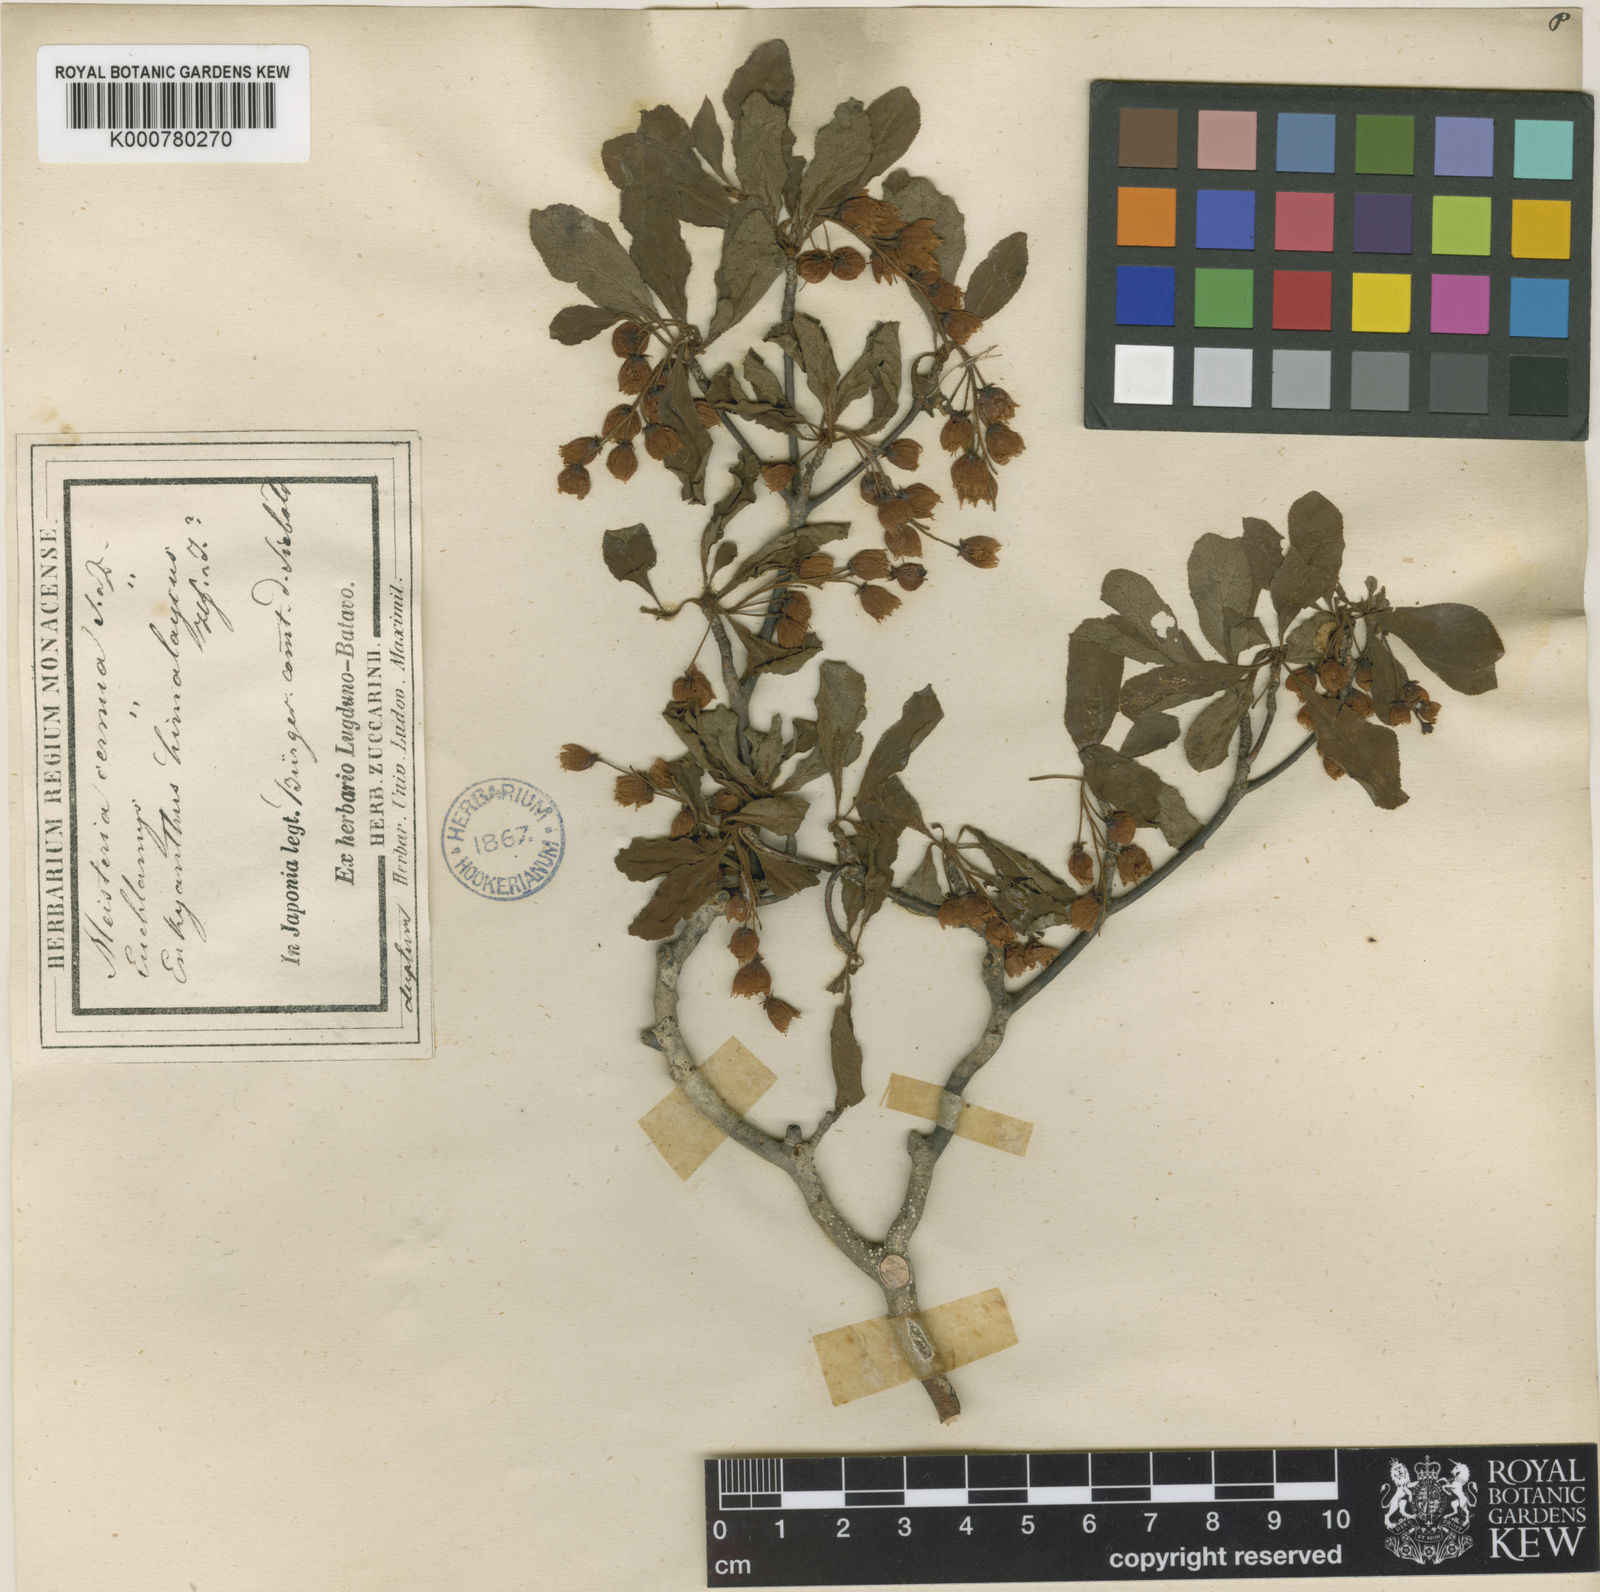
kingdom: Plantae
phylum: Tracheophyta
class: Magnoliopsida
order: Ericales
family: Ericaceae
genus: Enkianthus
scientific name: Enkianthus cernuus
